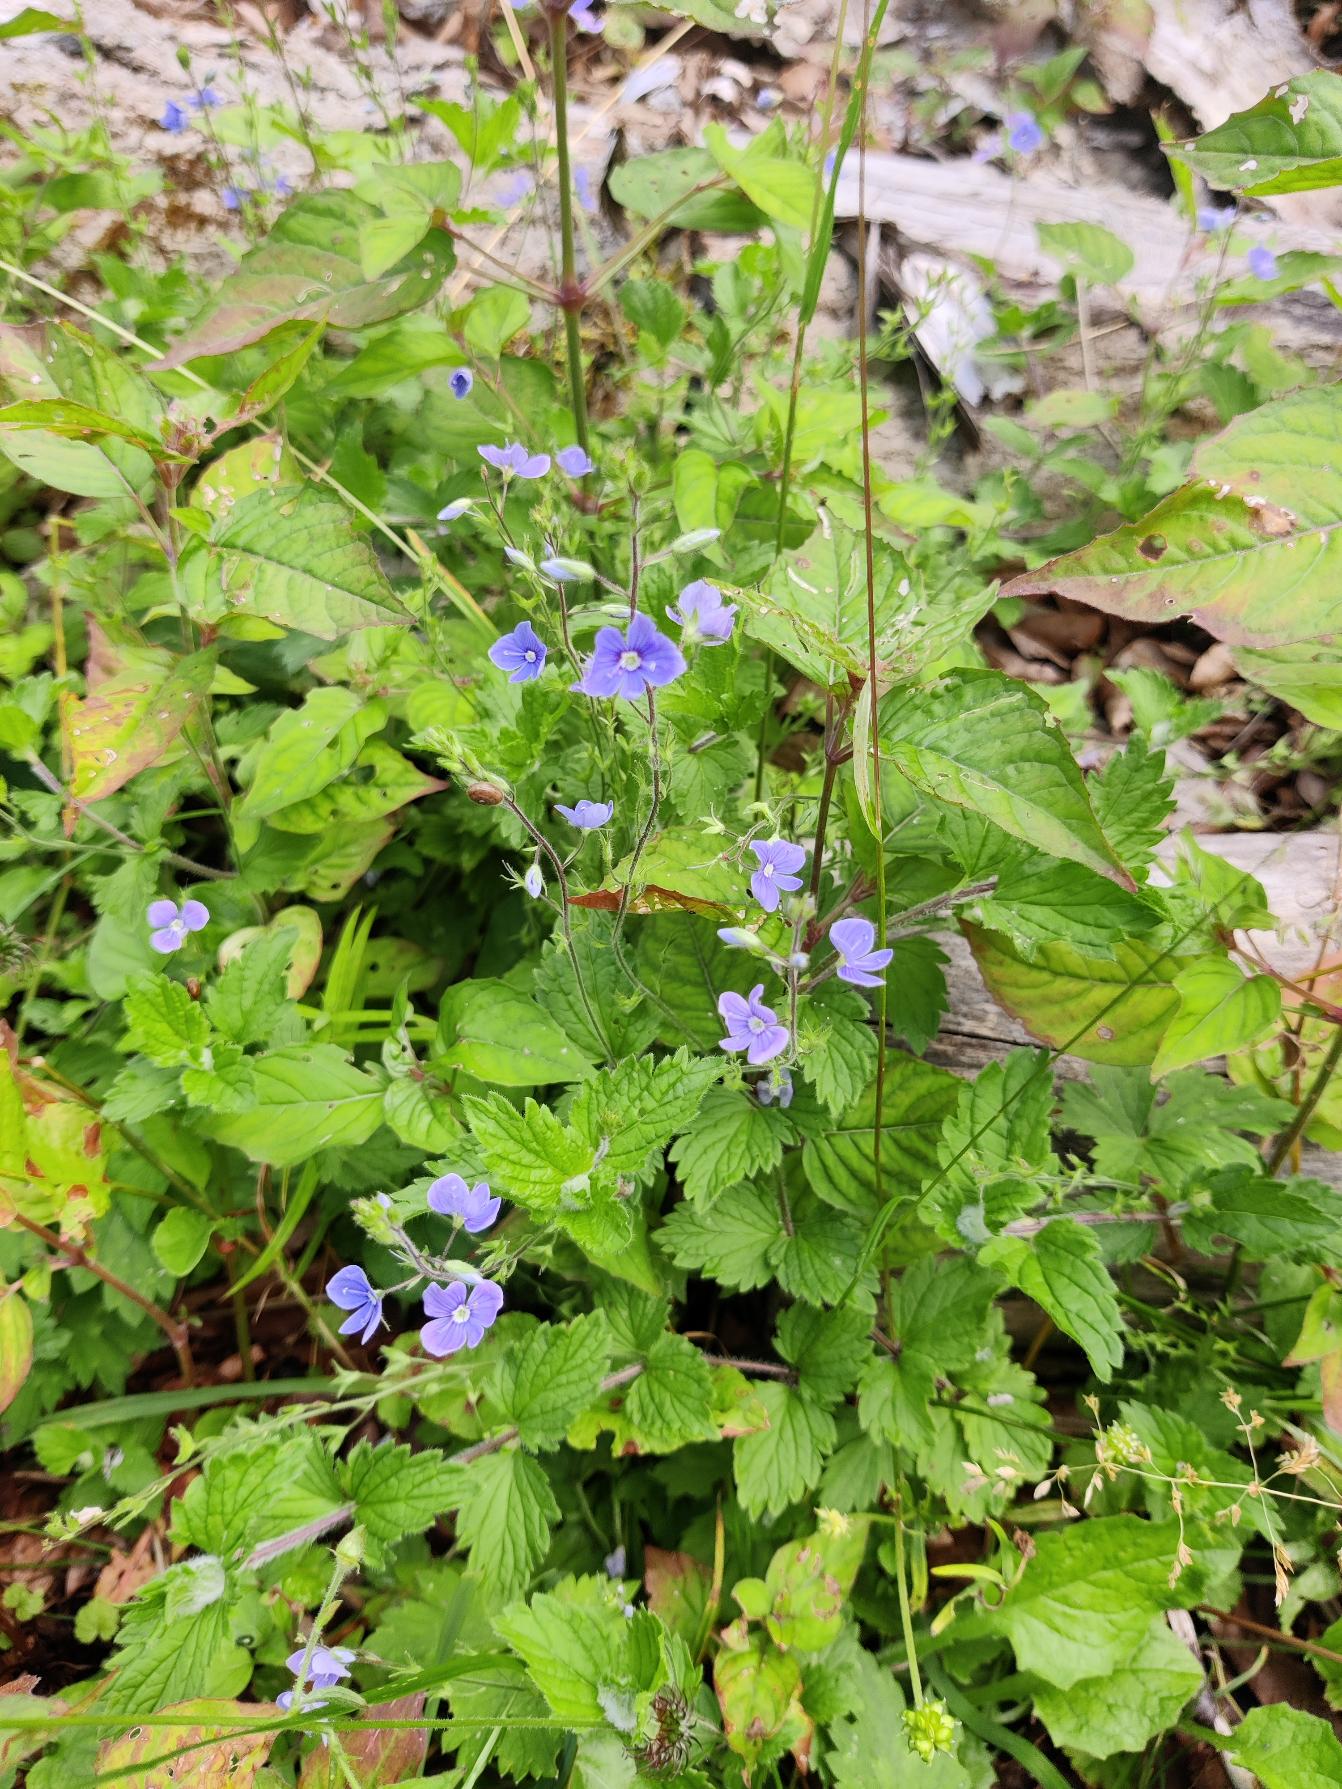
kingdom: Plantae
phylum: Tracheophyta
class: Magnoliopsida
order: Lamiales
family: Plantaginaceae
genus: Veronica
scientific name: Veronica chamaedrys
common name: Tveskægget ærenpris
